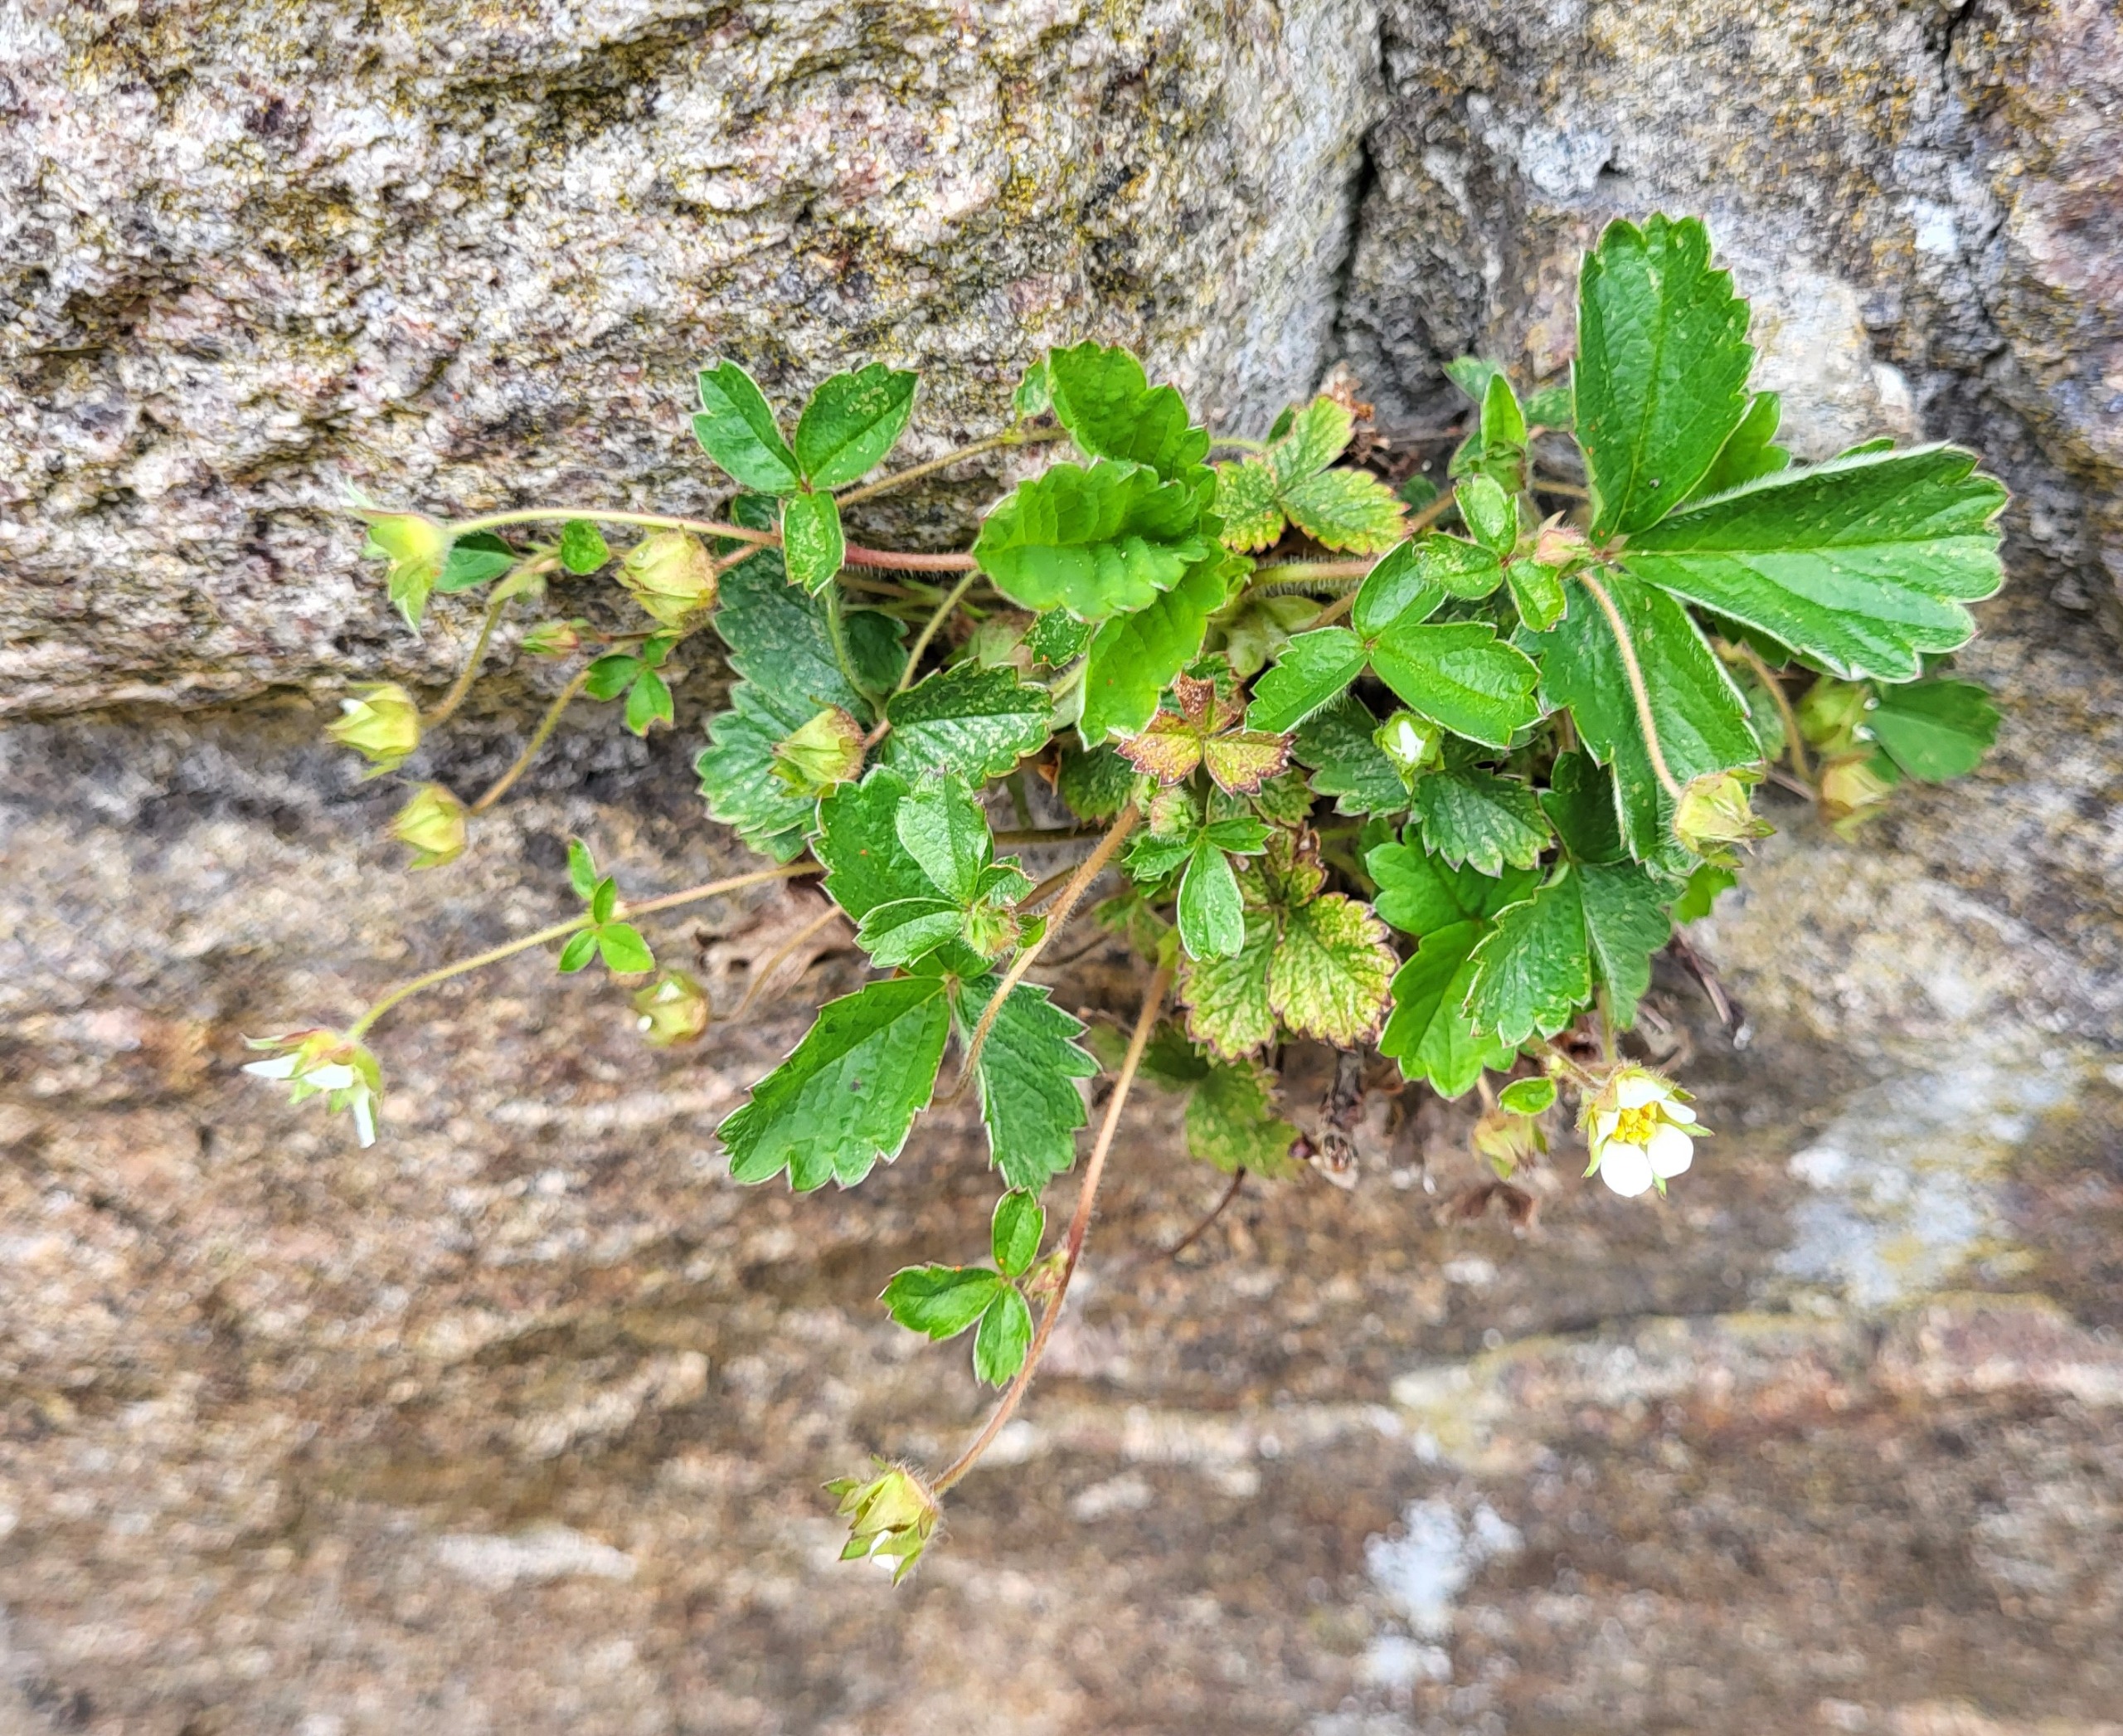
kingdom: Plantae
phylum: Tracheophyta
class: Magnoliopsida
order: Rosales
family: Rosaceae
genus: Potentilla
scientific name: Potentilla sterilis
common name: Jordbær-potentil
